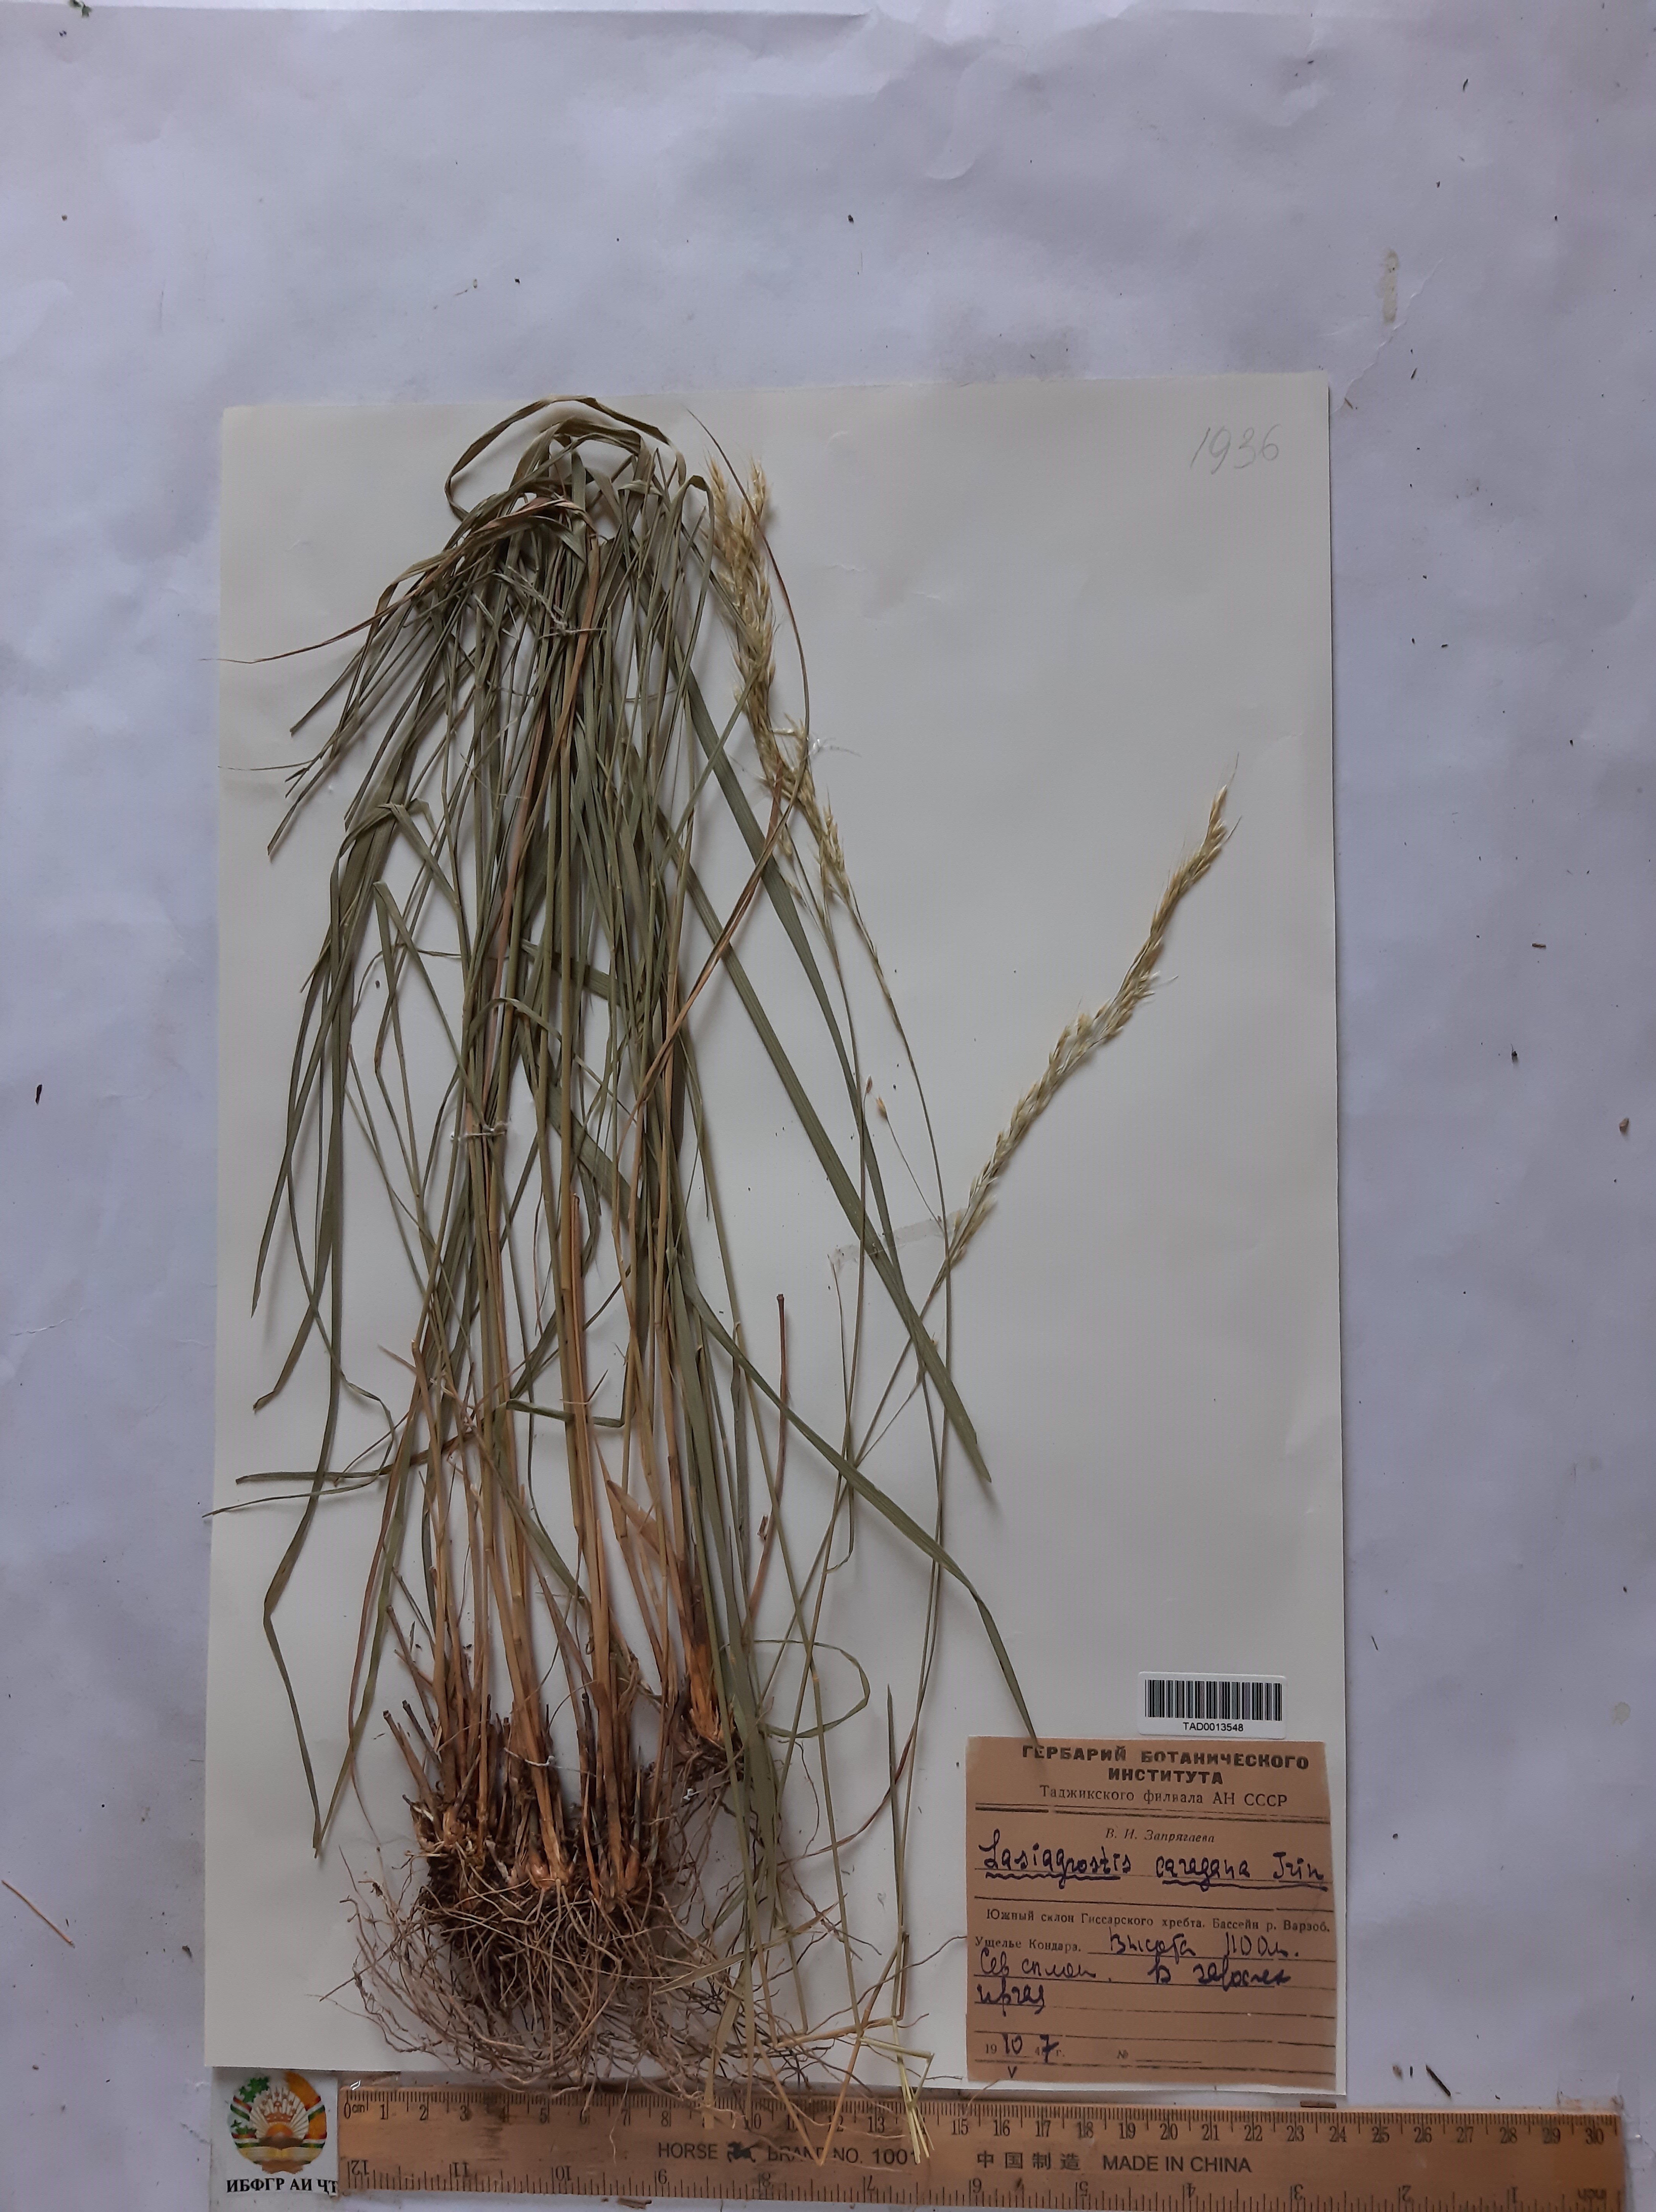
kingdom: Plantae
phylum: Tracheophyta
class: Liliopsida
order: Poales
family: Poaceae
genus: Stipa
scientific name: Stipa conferta
